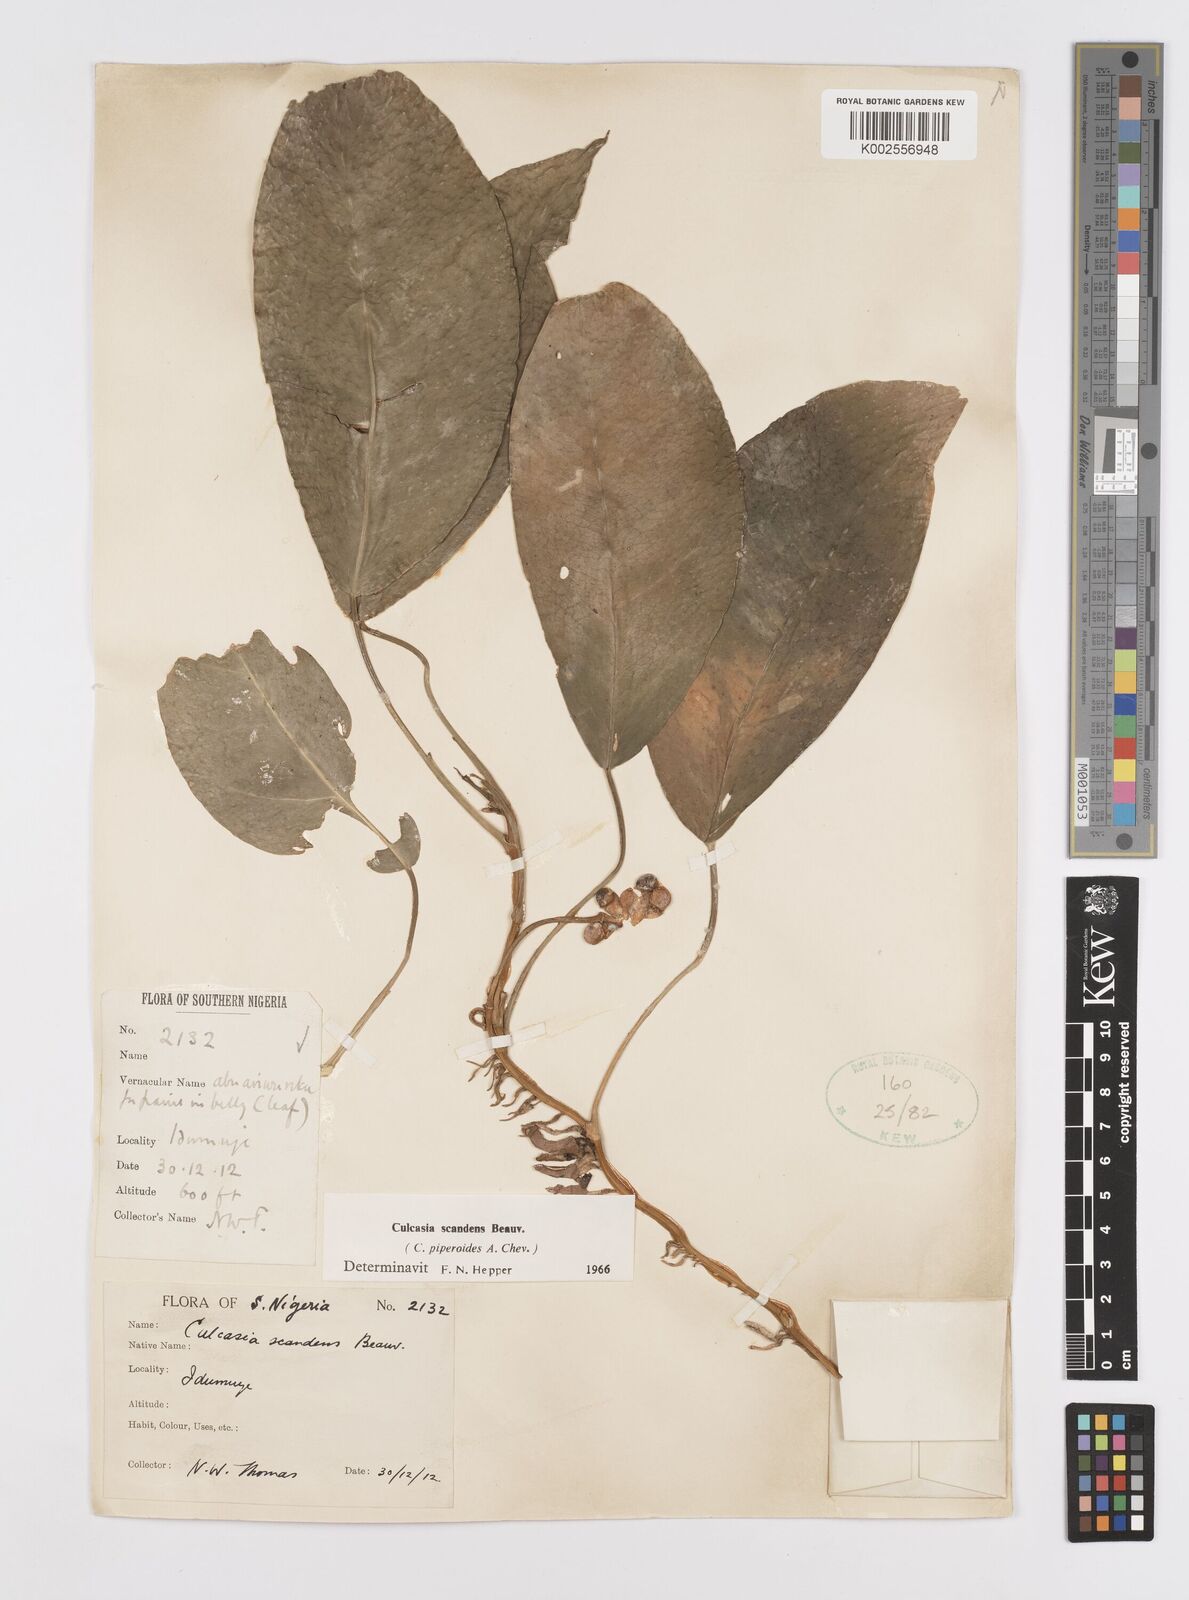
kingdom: Plantae
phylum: Tracheophyta
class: Liliopsida
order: Alismatales
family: Araceae
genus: Culcasia
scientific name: Culcasia scandens
